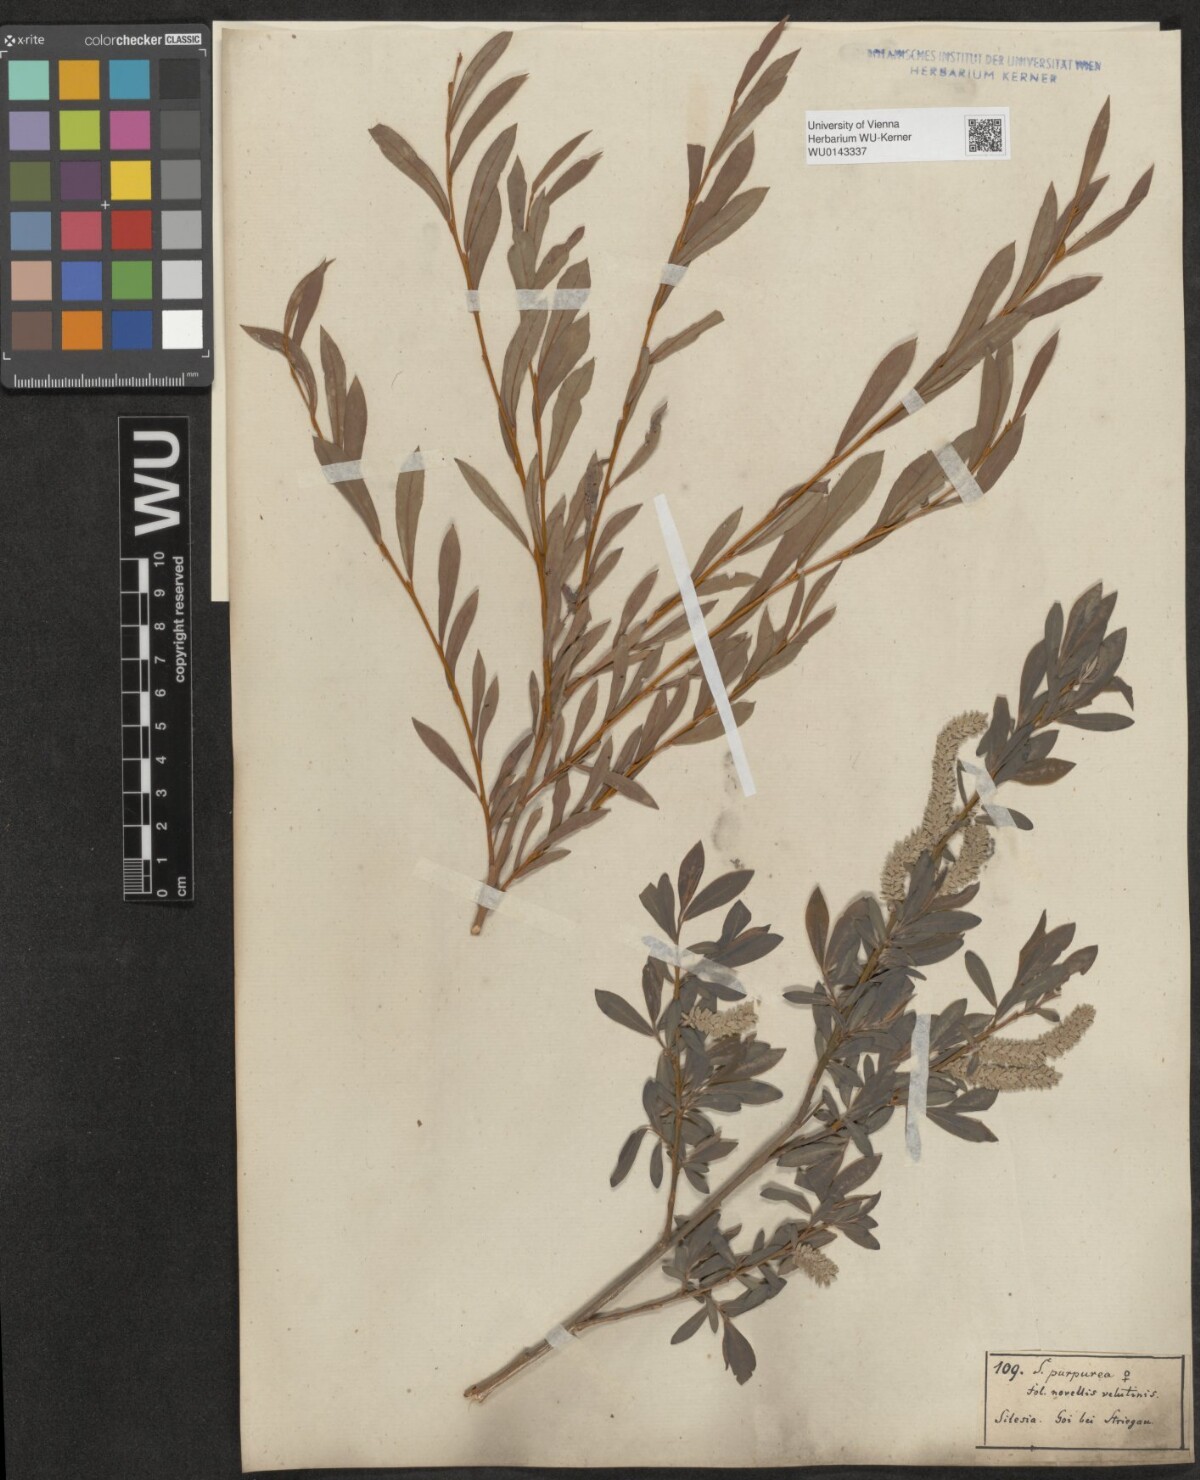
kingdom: Plantae
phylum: Tracheophyta
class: Magnoliopsida
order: Malpighiales
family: Salicaceae
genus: Salix
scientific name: Salix purpurea
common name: Purple willow
